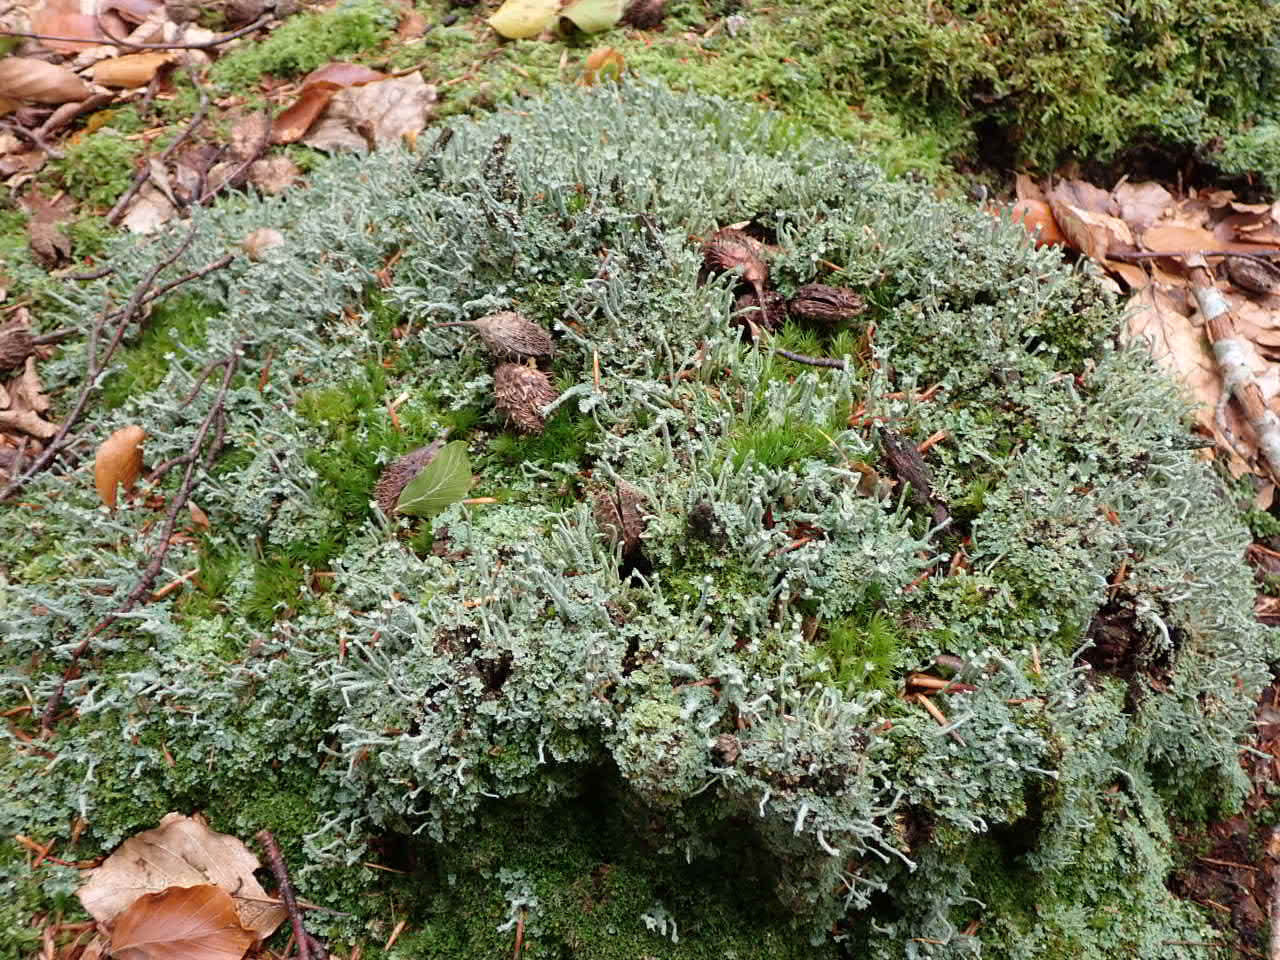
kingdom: Fungi
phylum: Ascomycota
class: Lecanoromycetes
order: Lecanorales
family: Cladoniaceae
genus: Cladonia
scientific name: Cladonia polydactyla
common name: Vifte-bægerlav
